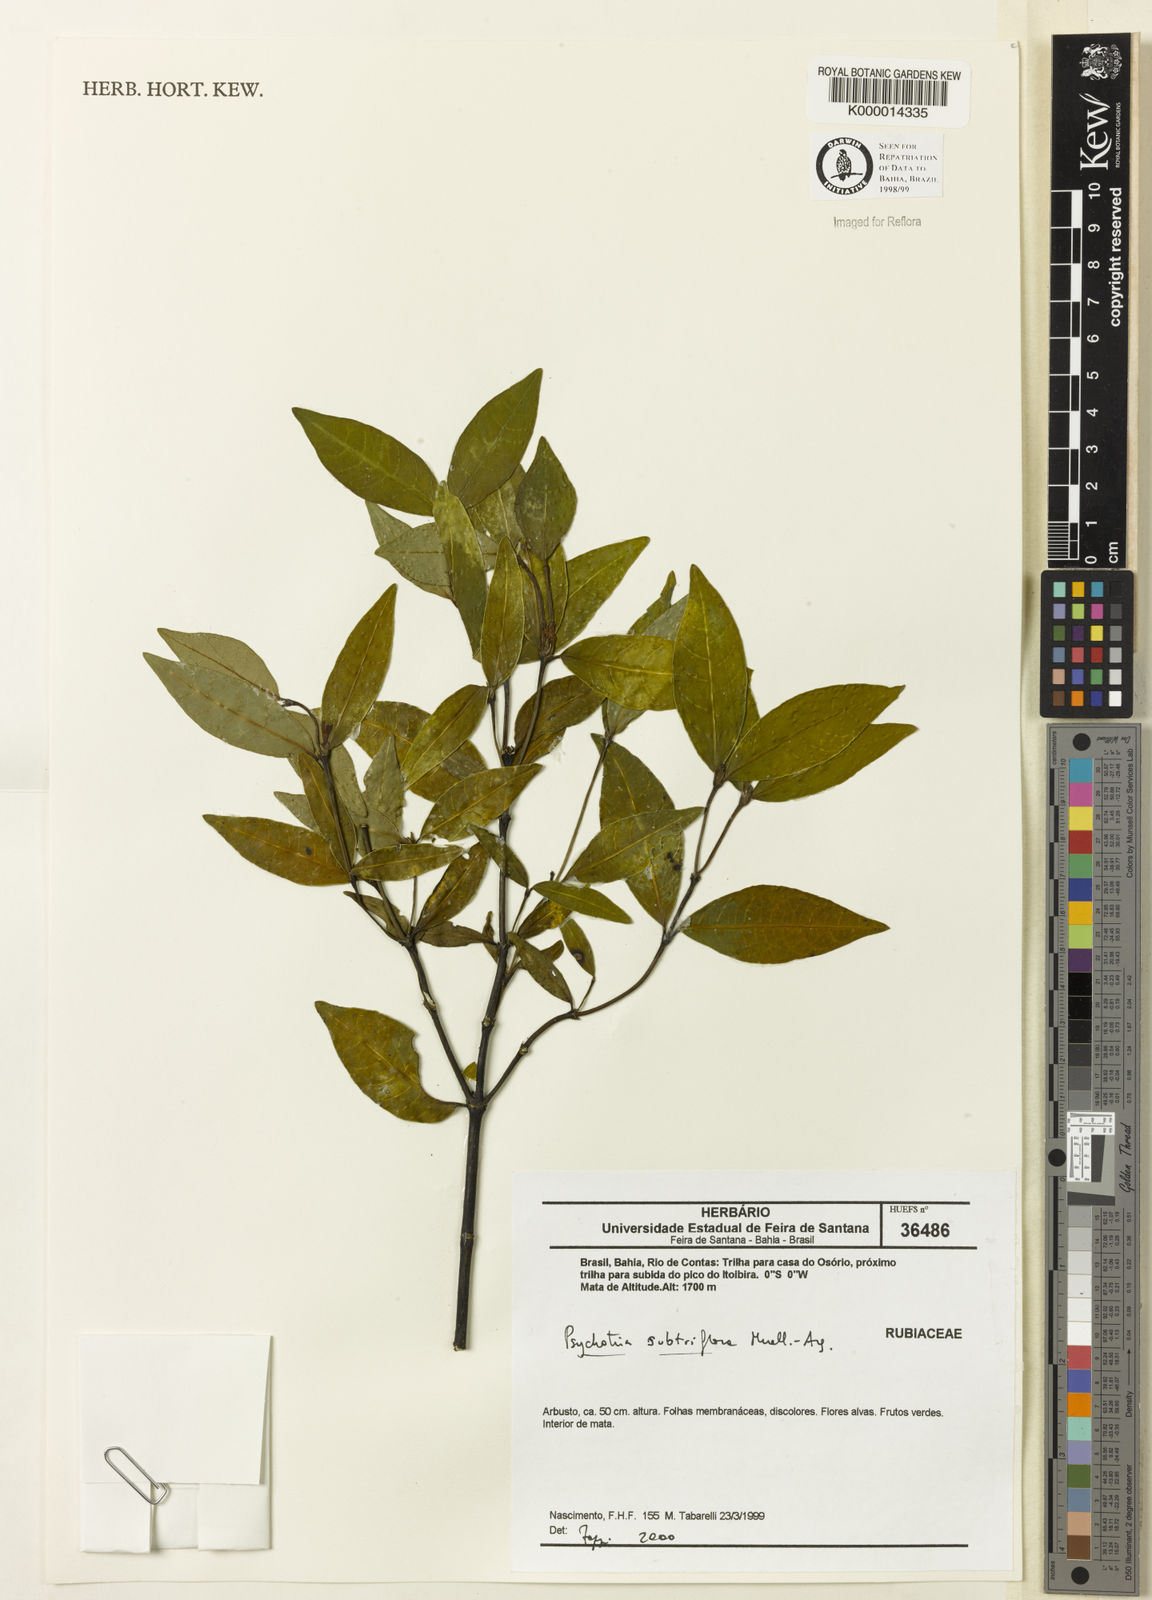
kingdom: Plantae
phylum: Tracheophyta
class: Magnoliopsida
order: Gentianales
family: Rubiaceae
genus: Psychotria
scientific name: Psychotria subtriflora
